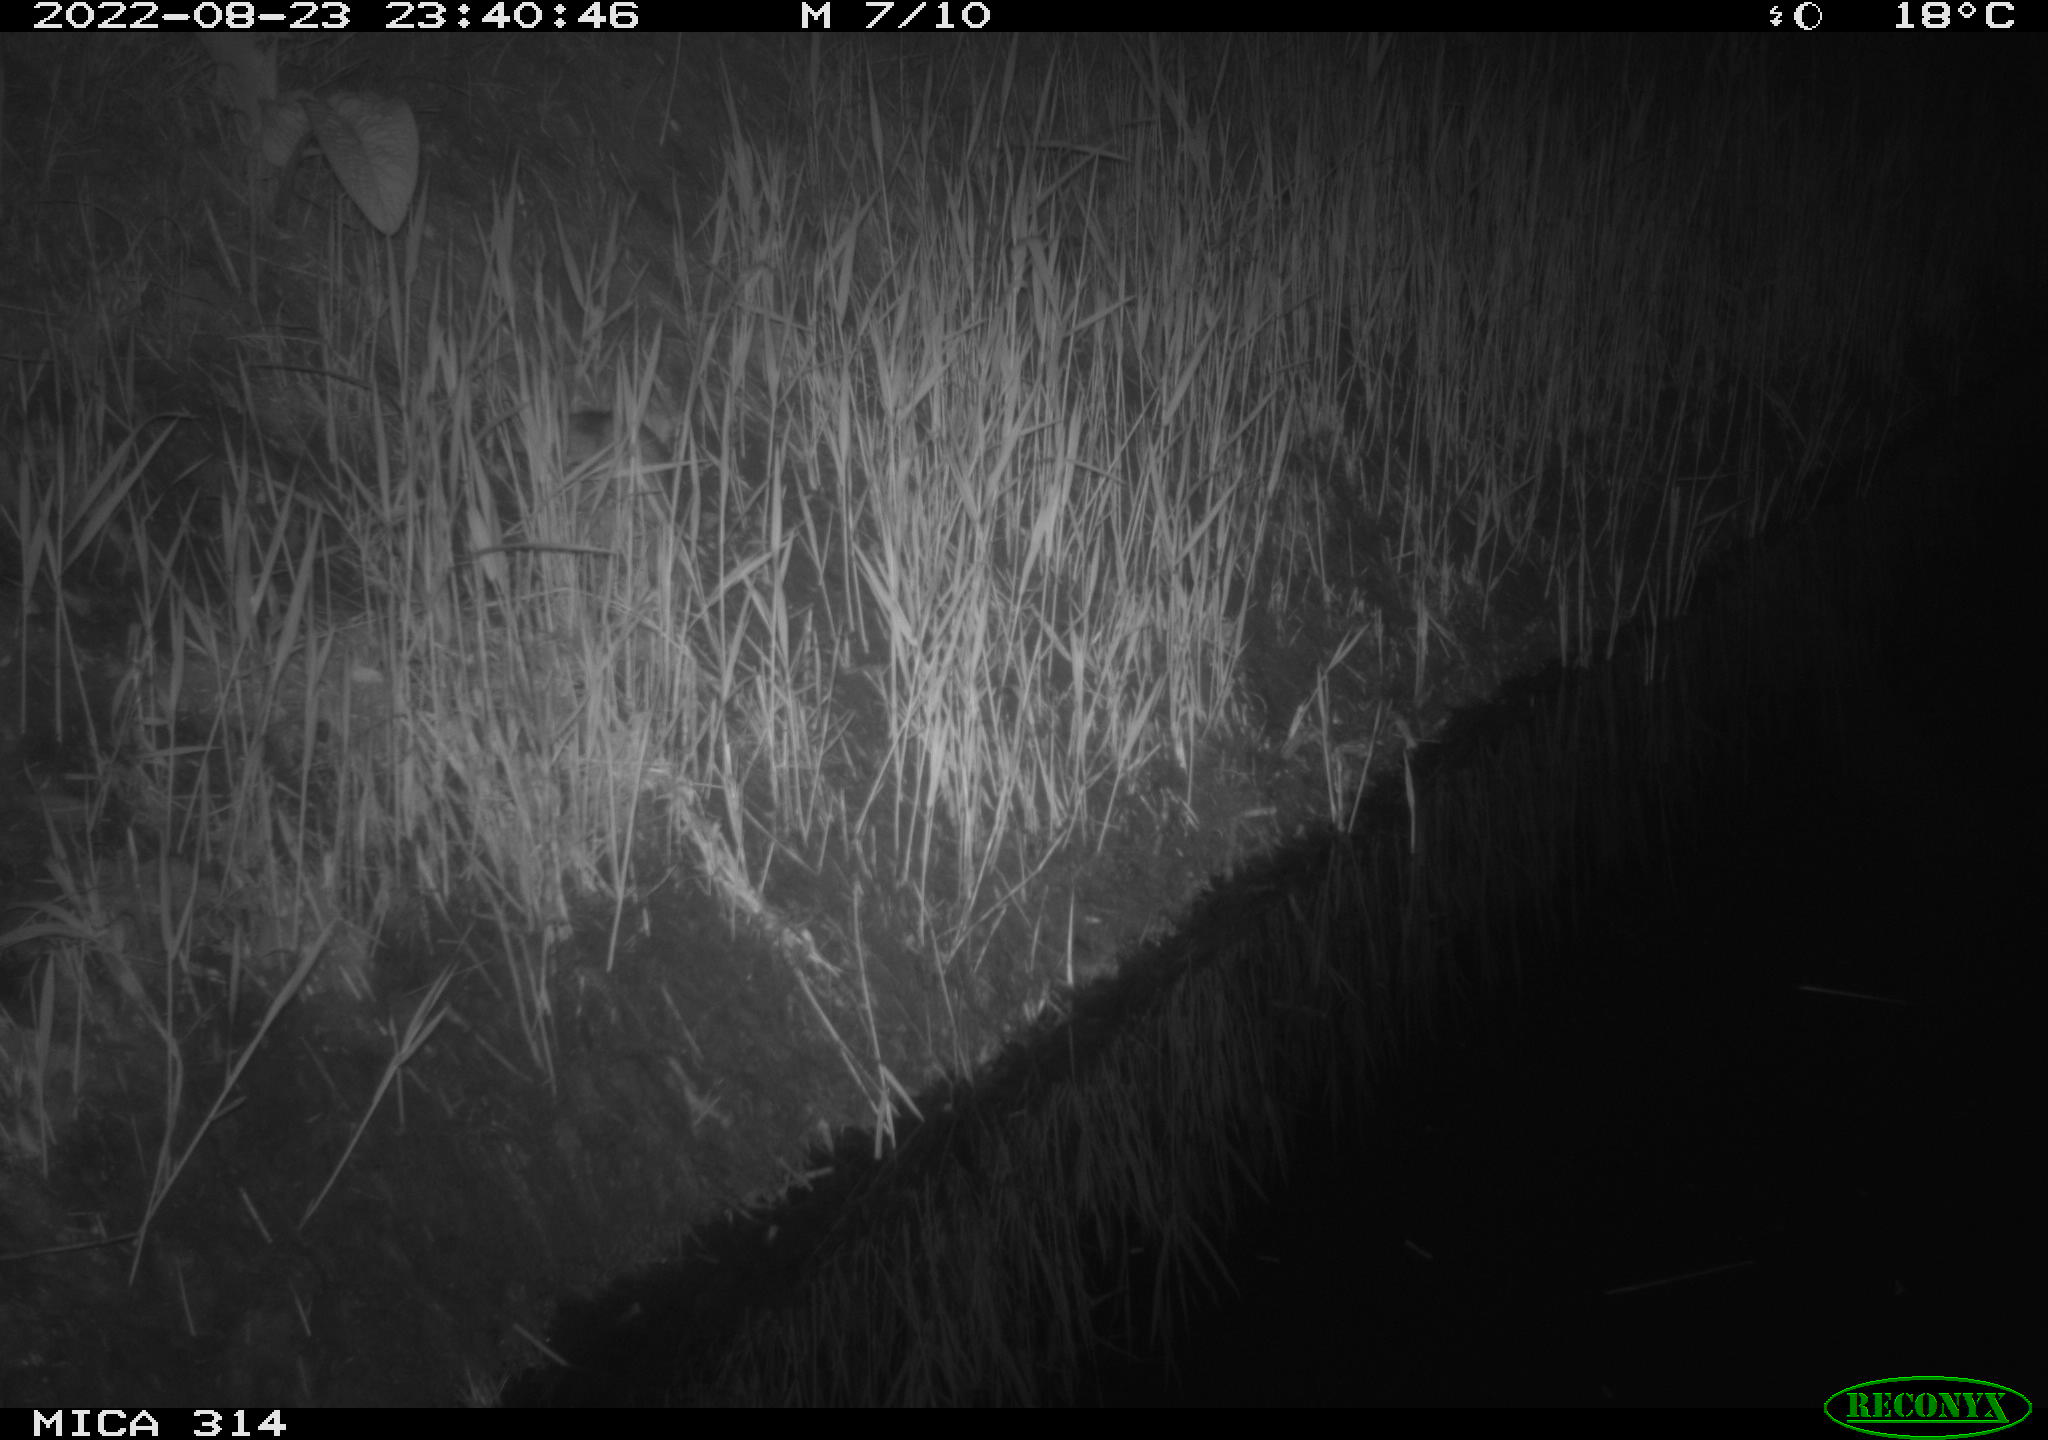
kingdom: Animalia
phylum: Chordata
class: Mammalia
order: Rodentia
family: Muridae
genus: Rattus
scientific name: Rattus norvegicus
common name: Brown rat
